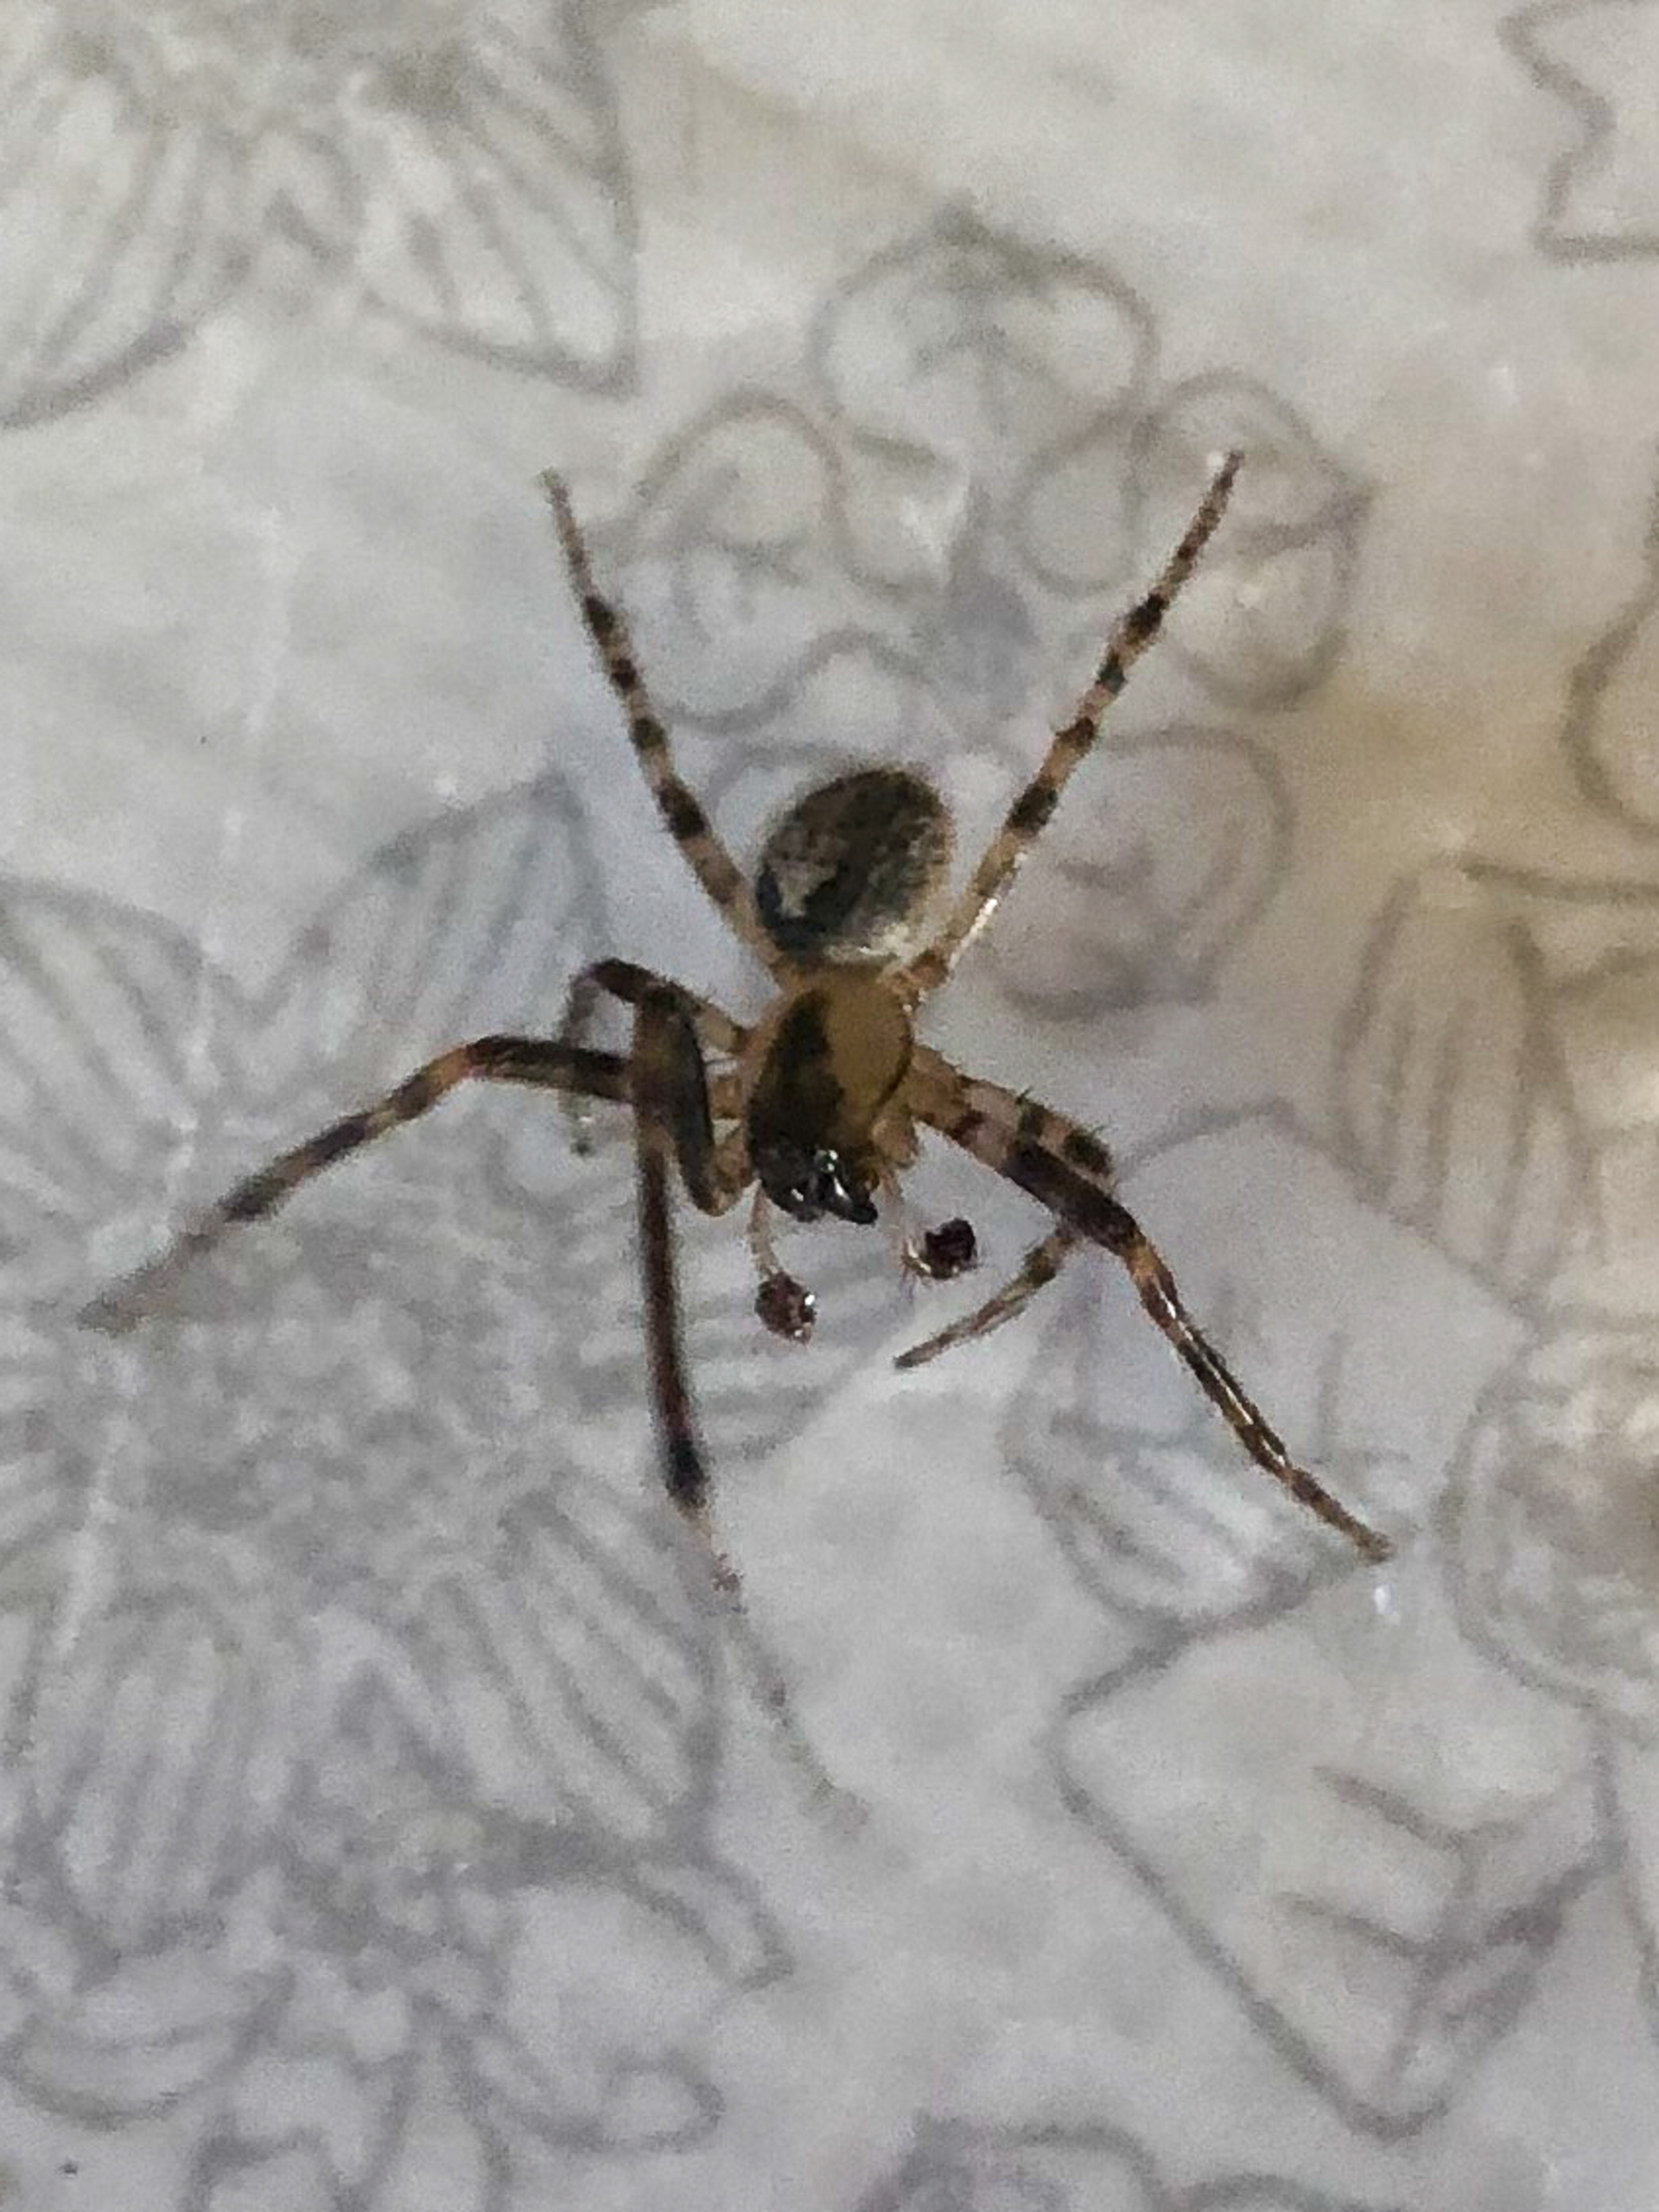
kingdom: Animalia
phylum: Arthropoda
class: Arachnida
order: Araneae
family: Araneidae
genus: Zygiella
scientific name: Zygiella x-notata
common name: Grå sektoredderkop
